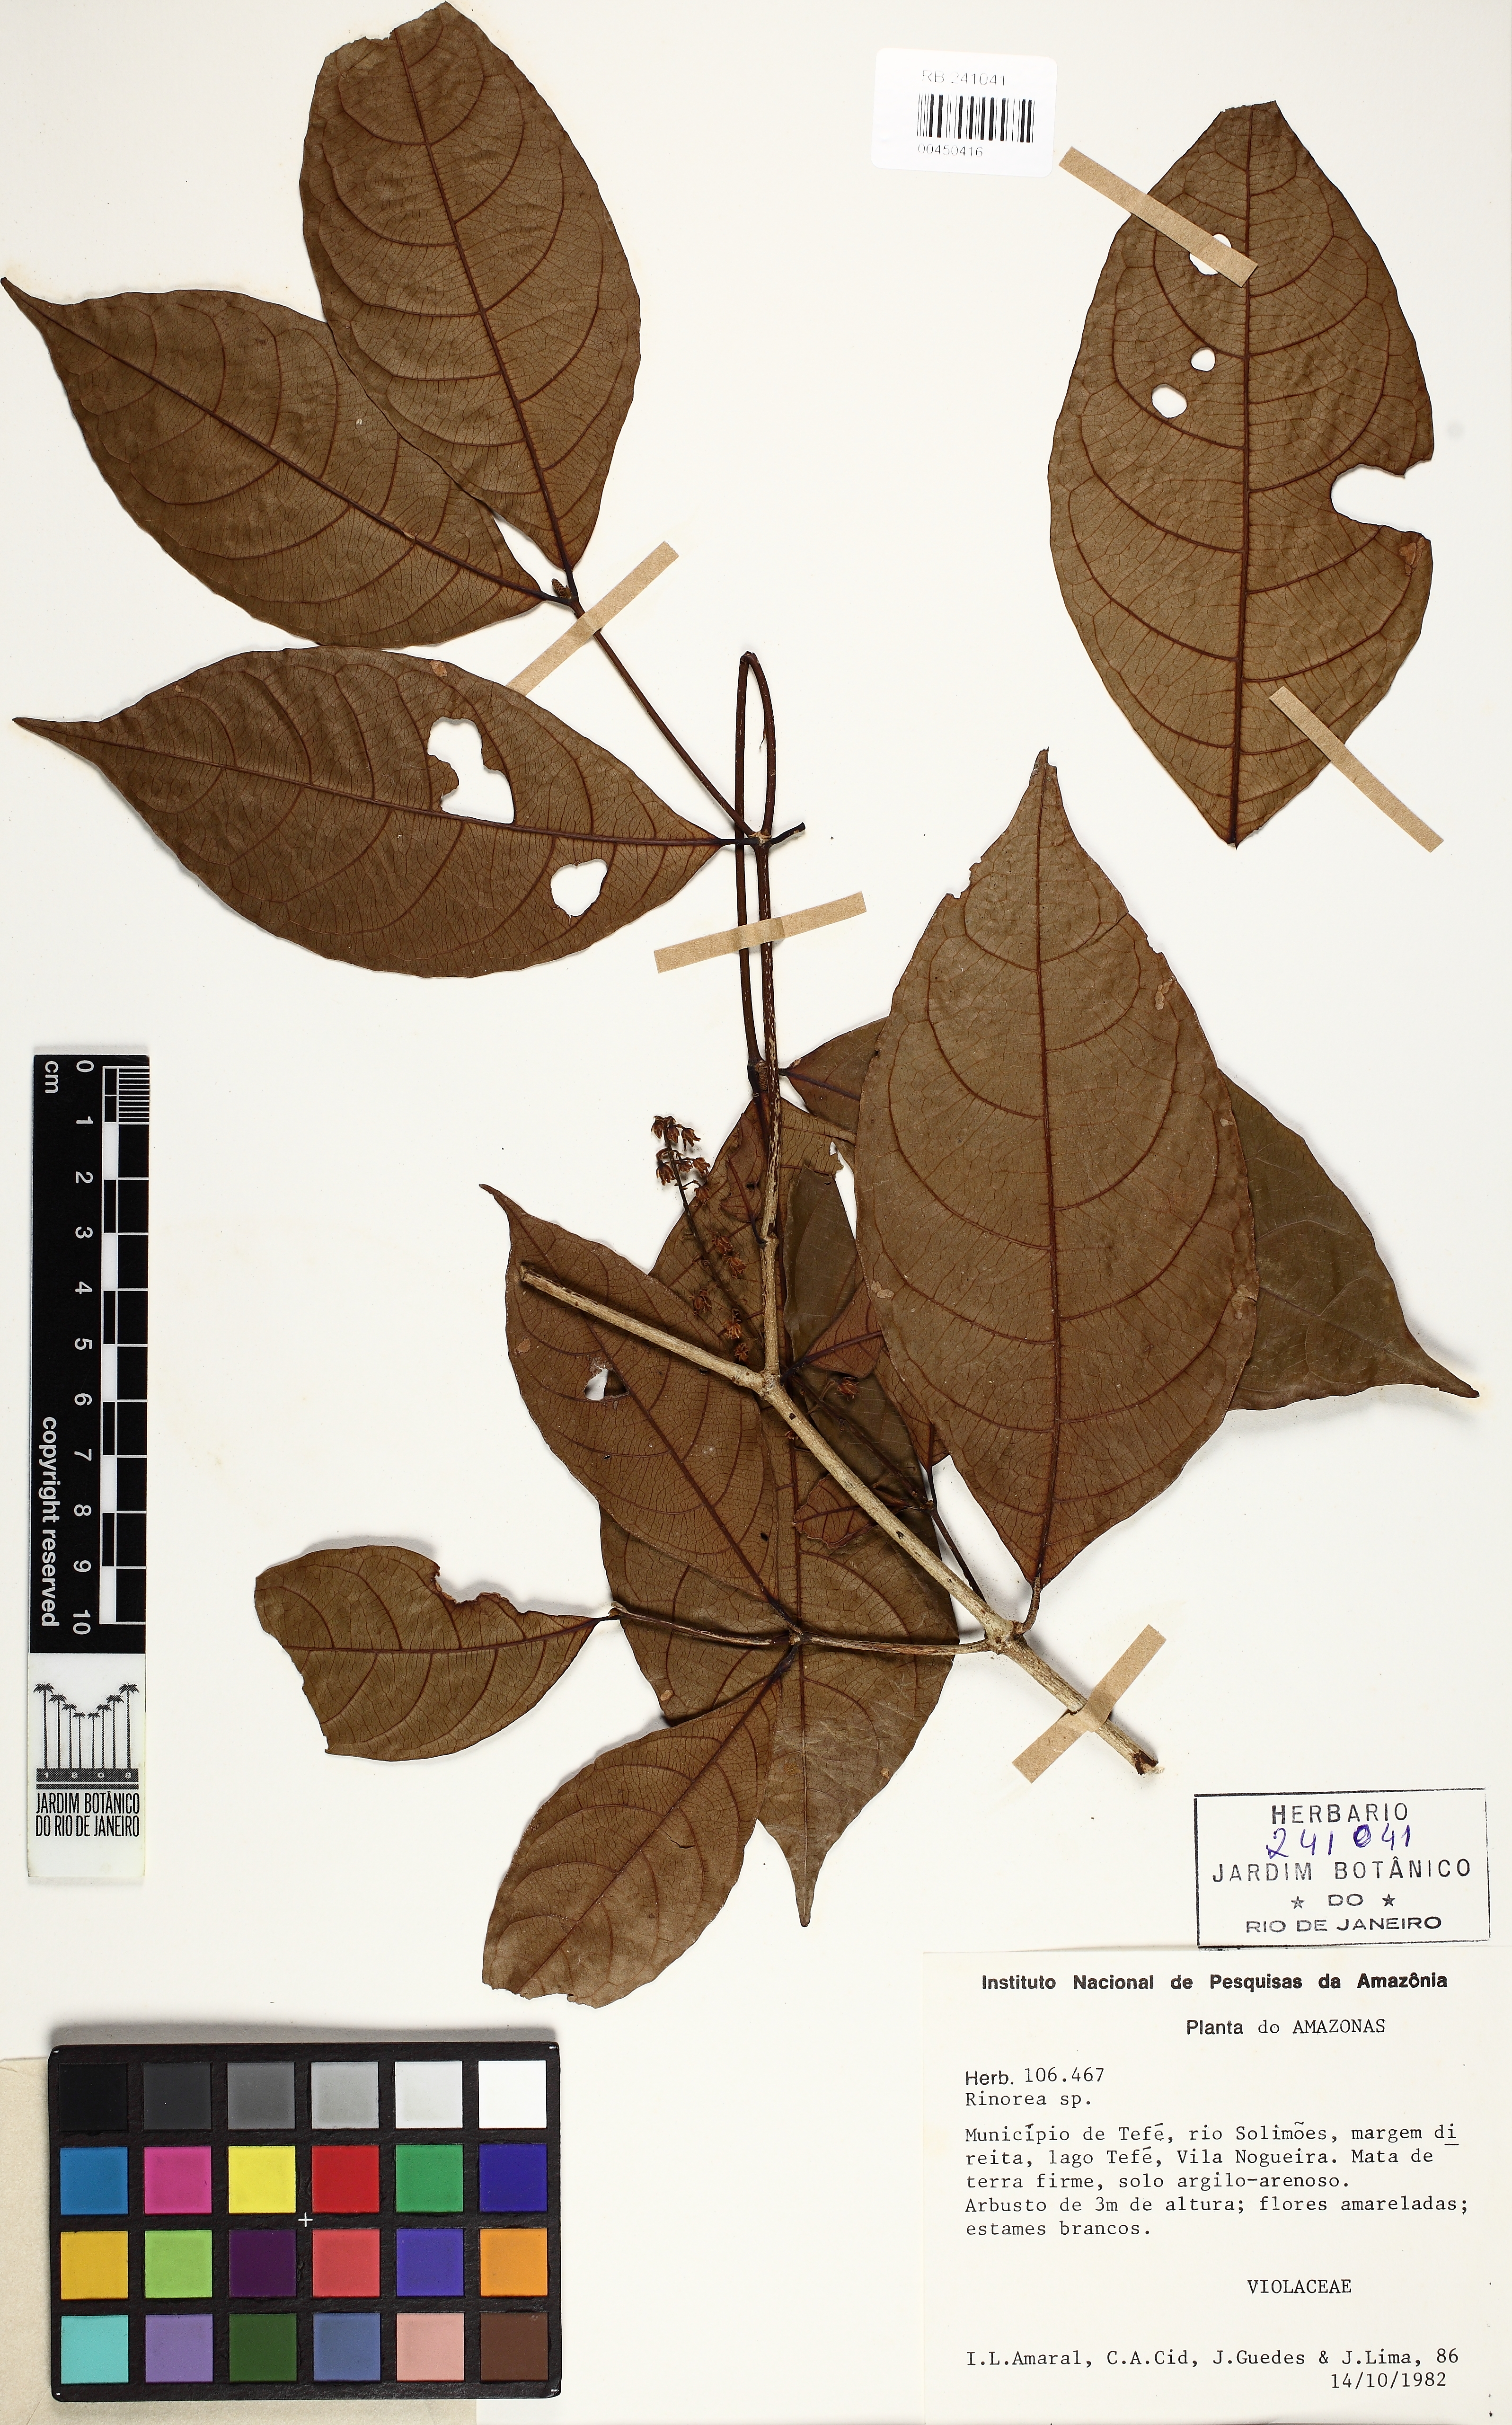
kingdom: Plantae
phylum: Tracheophyta
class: Magnoliopsida
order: Malpighiales
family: Violaceae
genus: Rinorea
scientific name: Rinorea
